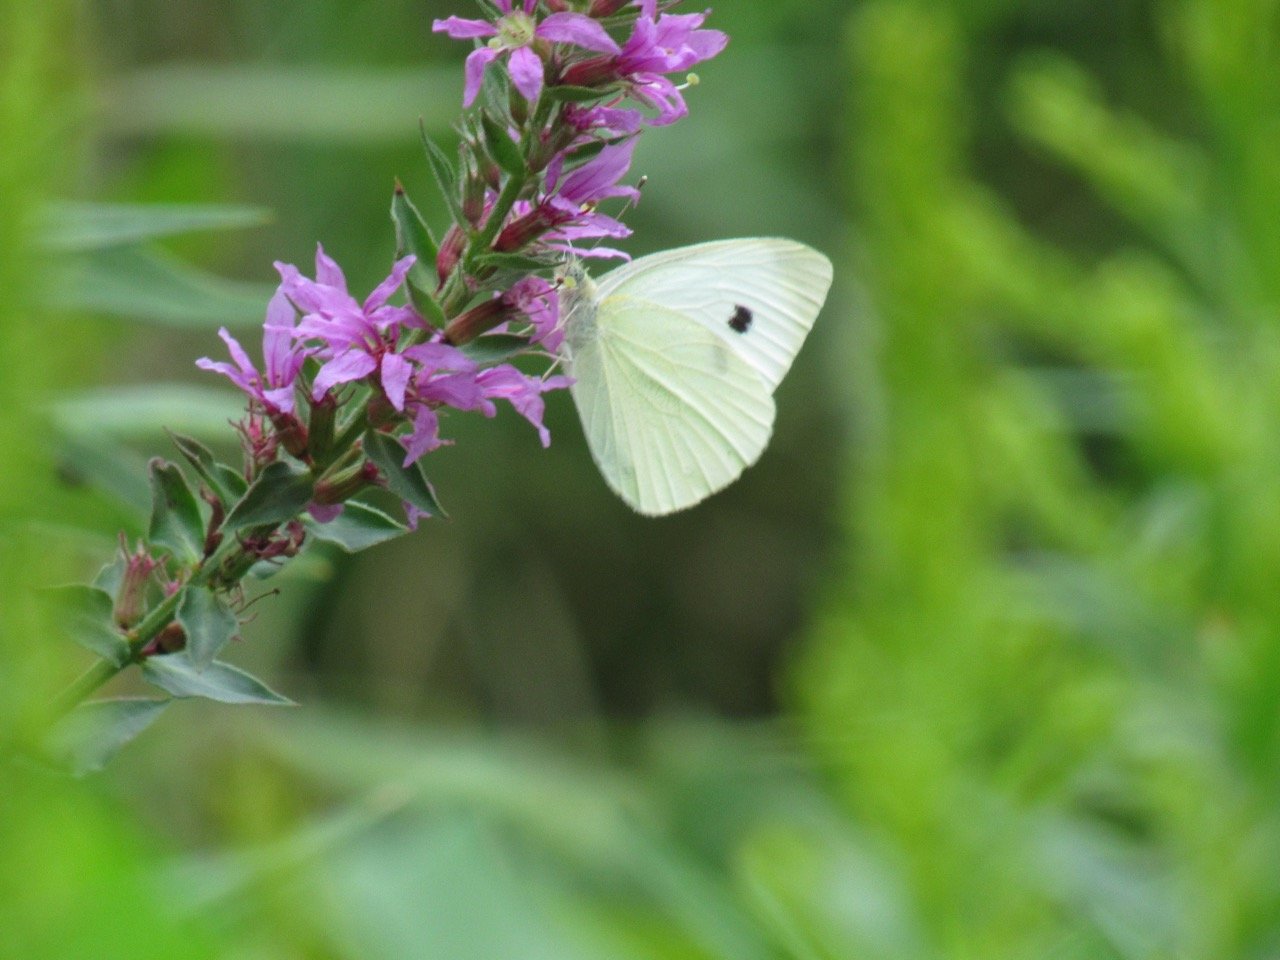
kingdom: Animalia
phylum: Arthropoda
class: Insecta
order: Lepidoptera
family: Pieridae
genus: Pieris
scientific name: Pieris rapae
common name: Cabbage White
